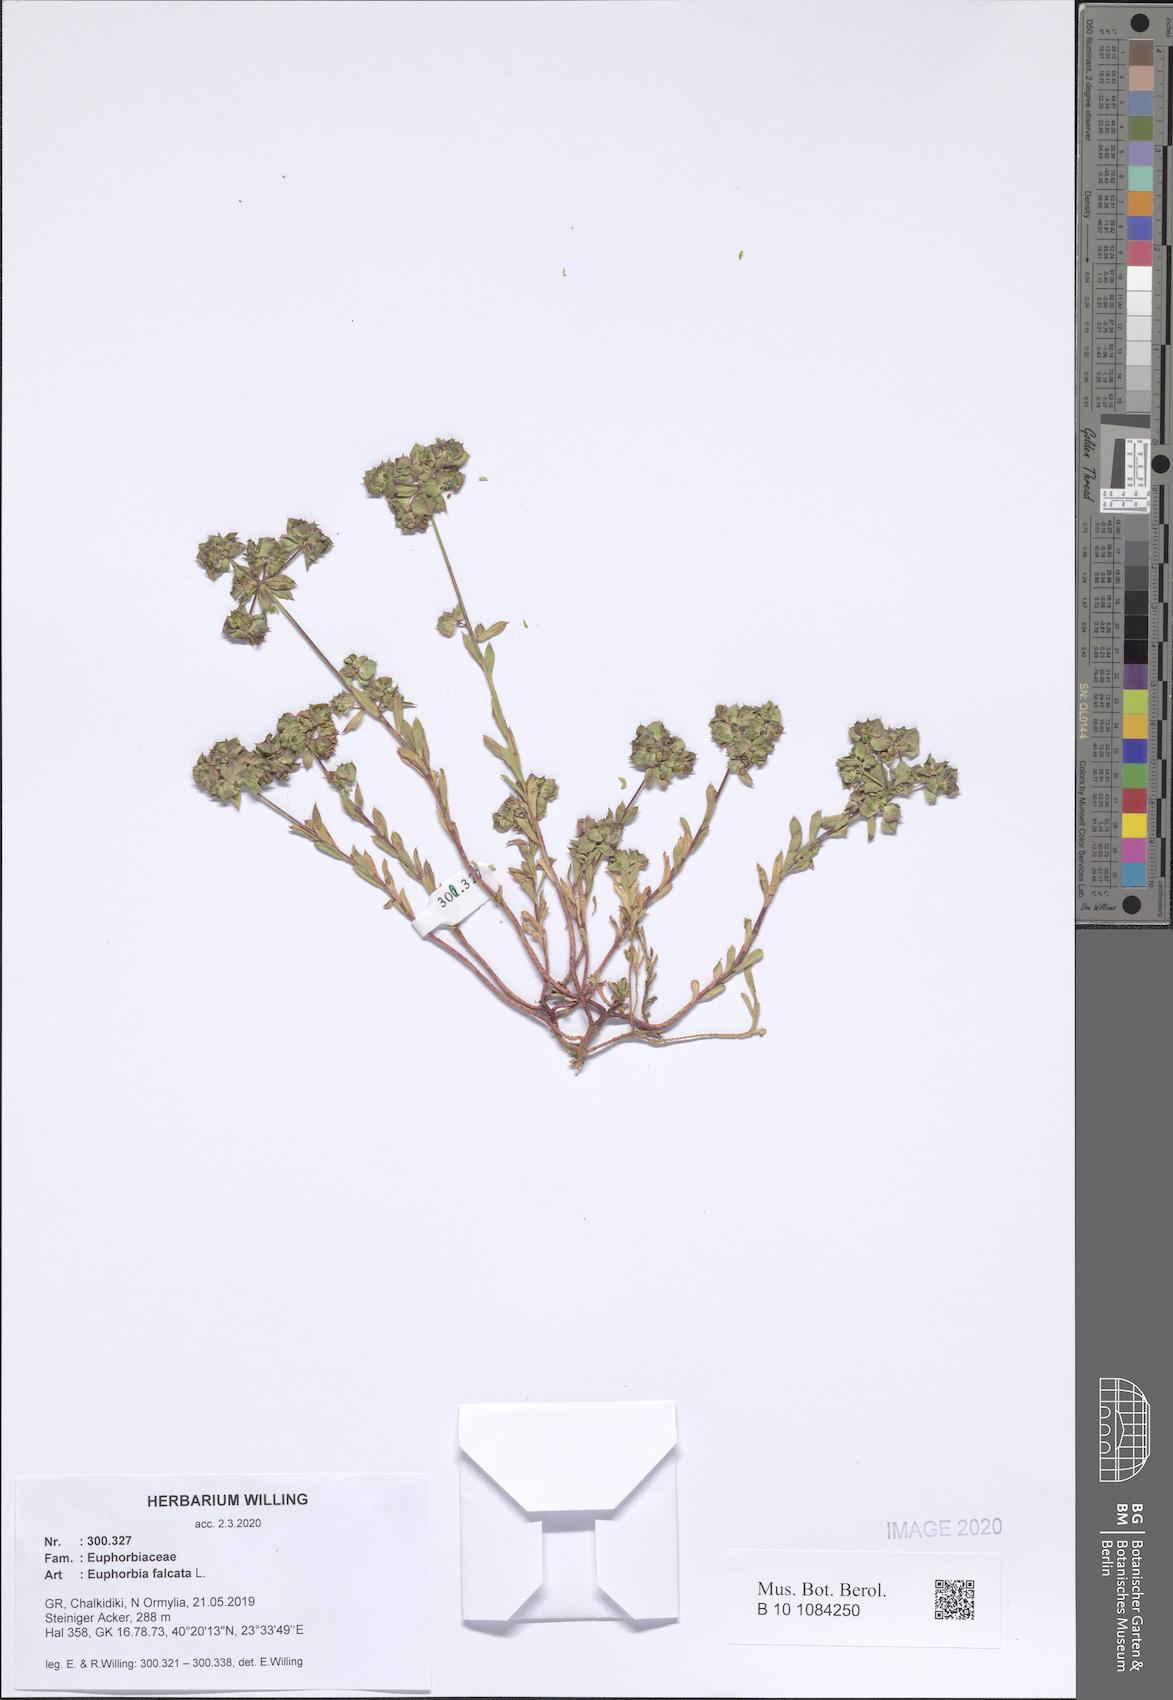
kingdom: Plantae
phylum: Tracheophyta
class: Magnoliopsida
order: Malpighiales
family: Euphorbiaceae
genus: Euphorbia
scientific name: Euphorbia falcata
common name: Sickle spurge
